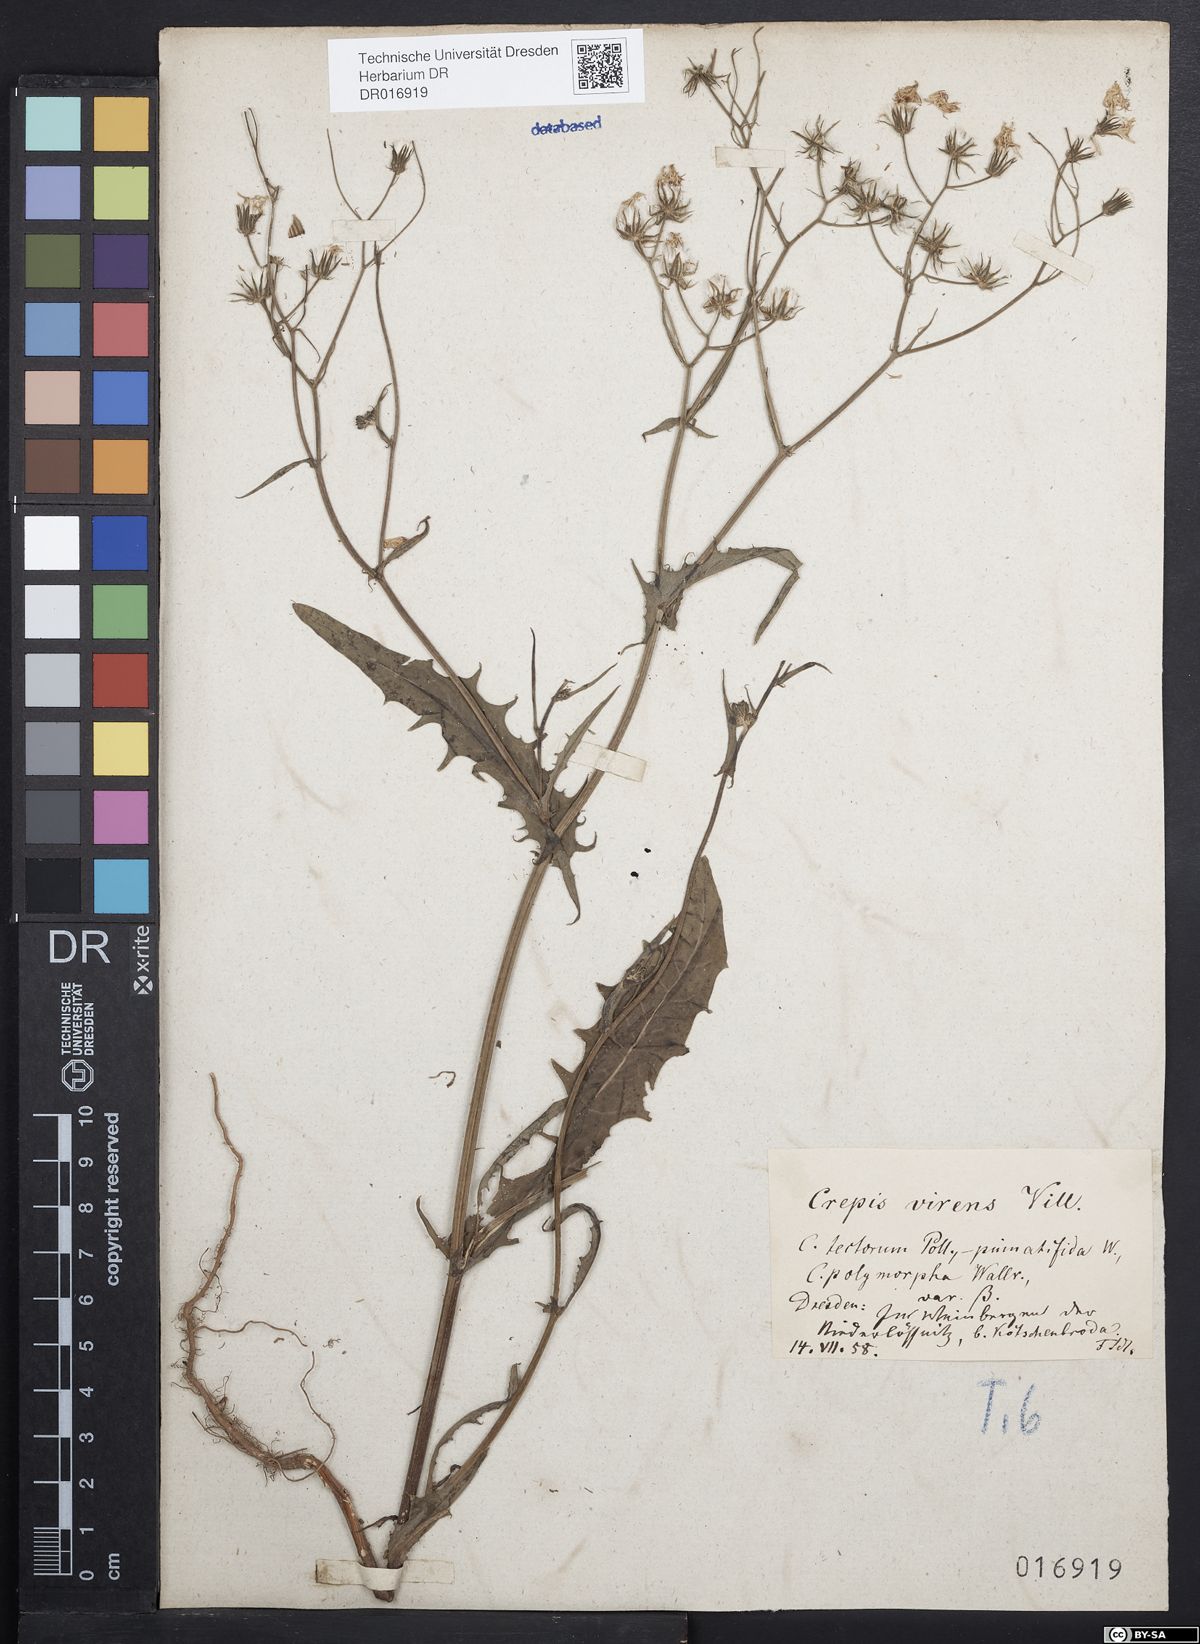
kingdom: Plantae
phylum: Tracheophyta
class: Magnoliopsida
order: Asterales
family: Asteraceae
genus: Crepis
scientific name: Crepis capillaris
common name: Smooth hawksbeard
